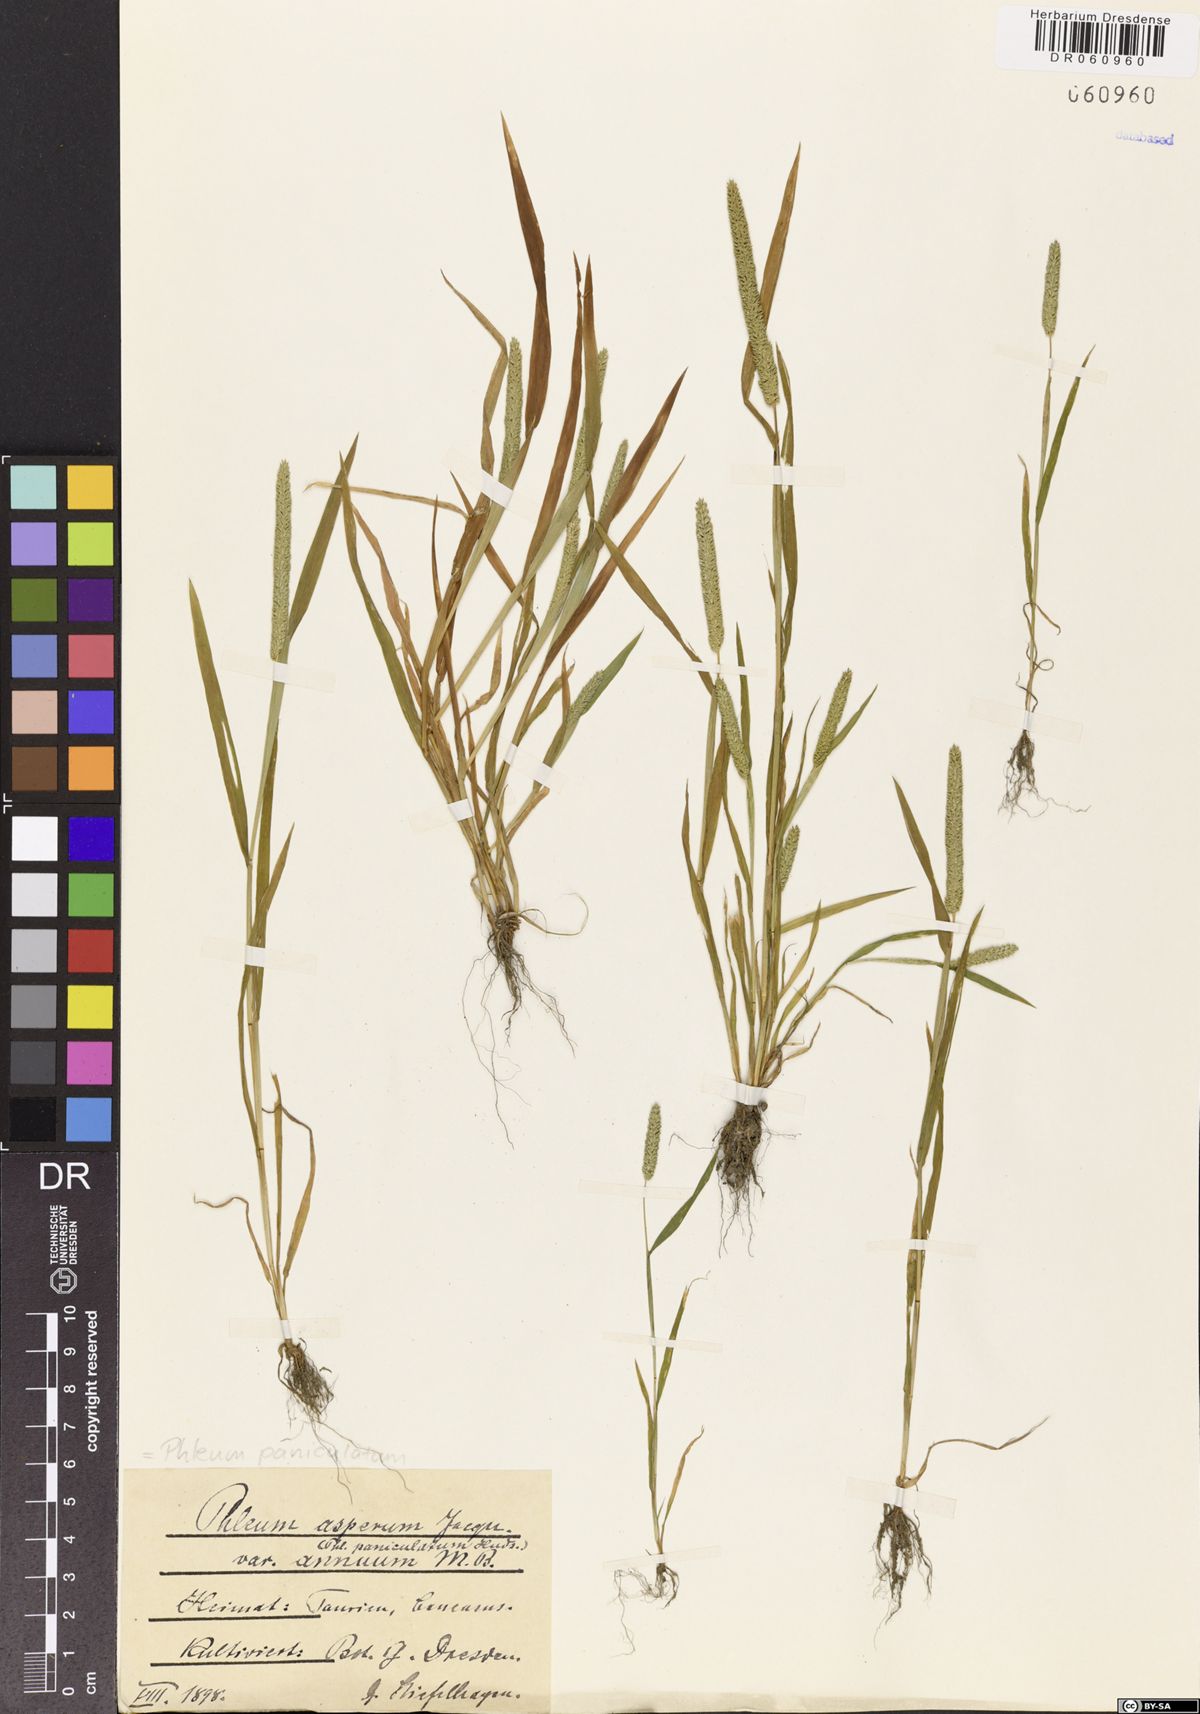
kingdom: Plantae
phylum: Tracheophyta
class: Liliopsida
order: Poales
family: Poaceae
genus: Phleum
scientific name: Phleum paniculatum
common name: British timothy
